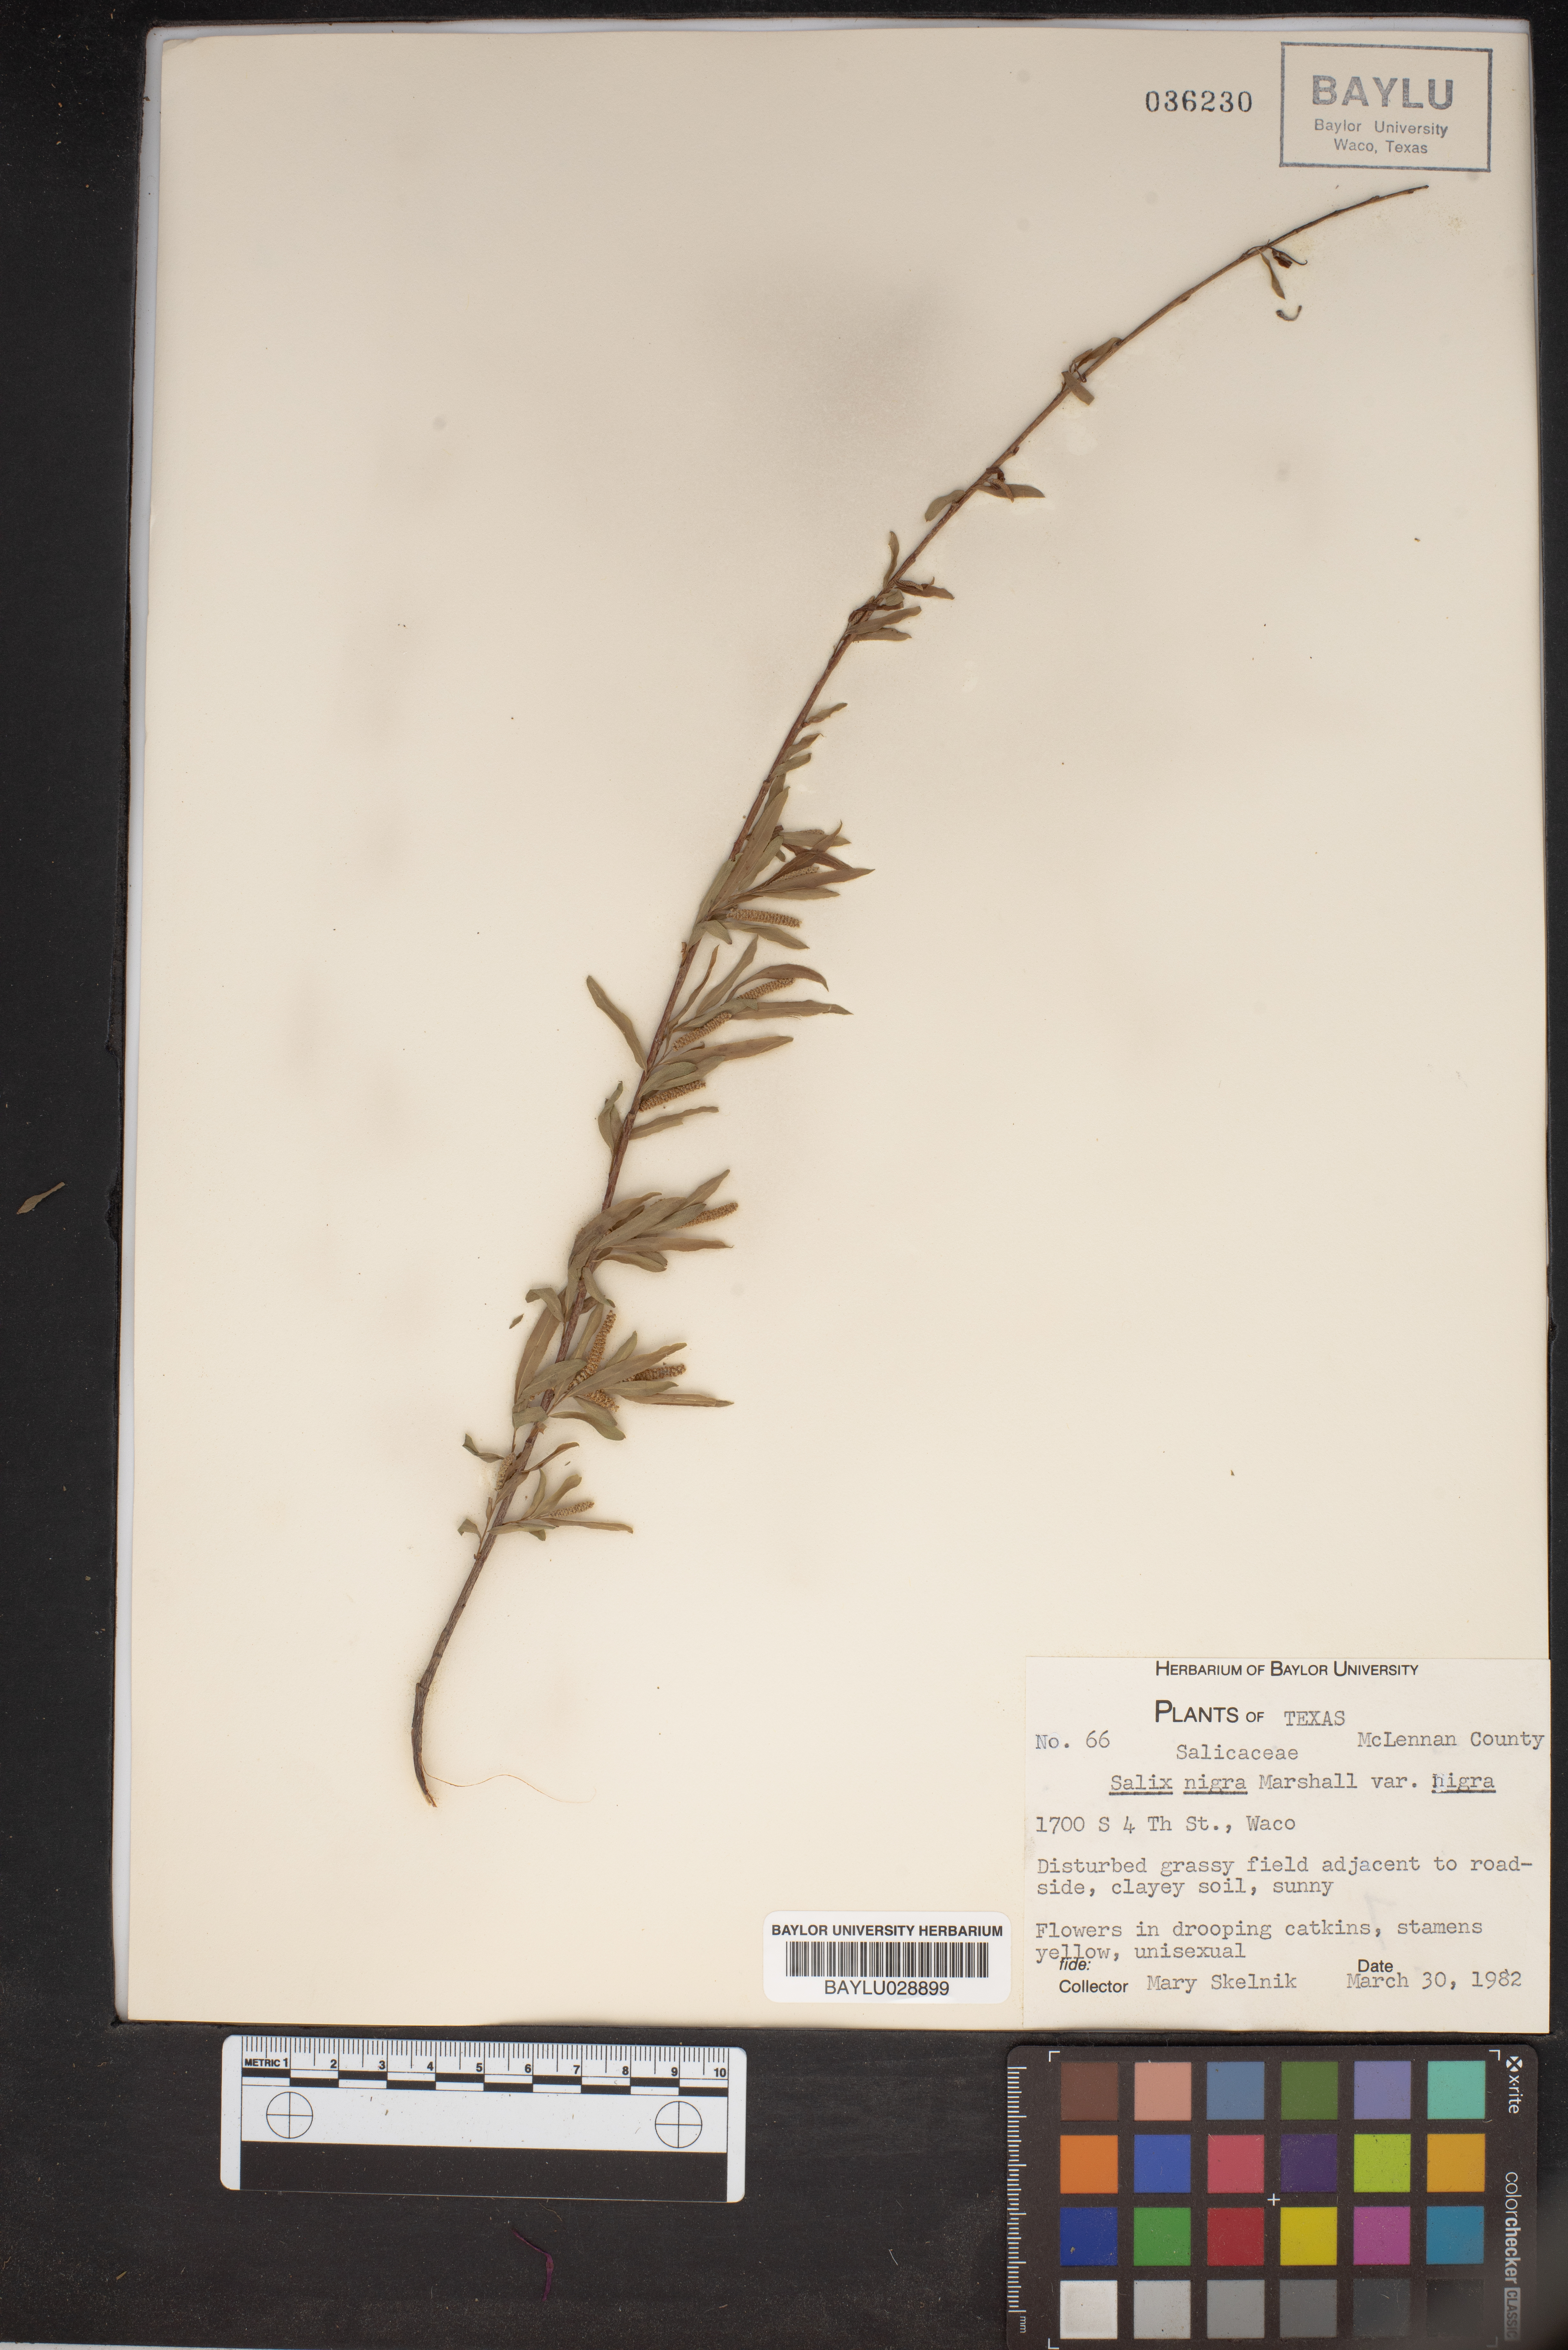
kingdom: Plantae
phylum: Tracheophyta
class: Magnoliopsida
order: Malpighiales
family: Salicaceae
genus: Salix
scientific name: Salix nigra
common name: Black willow
